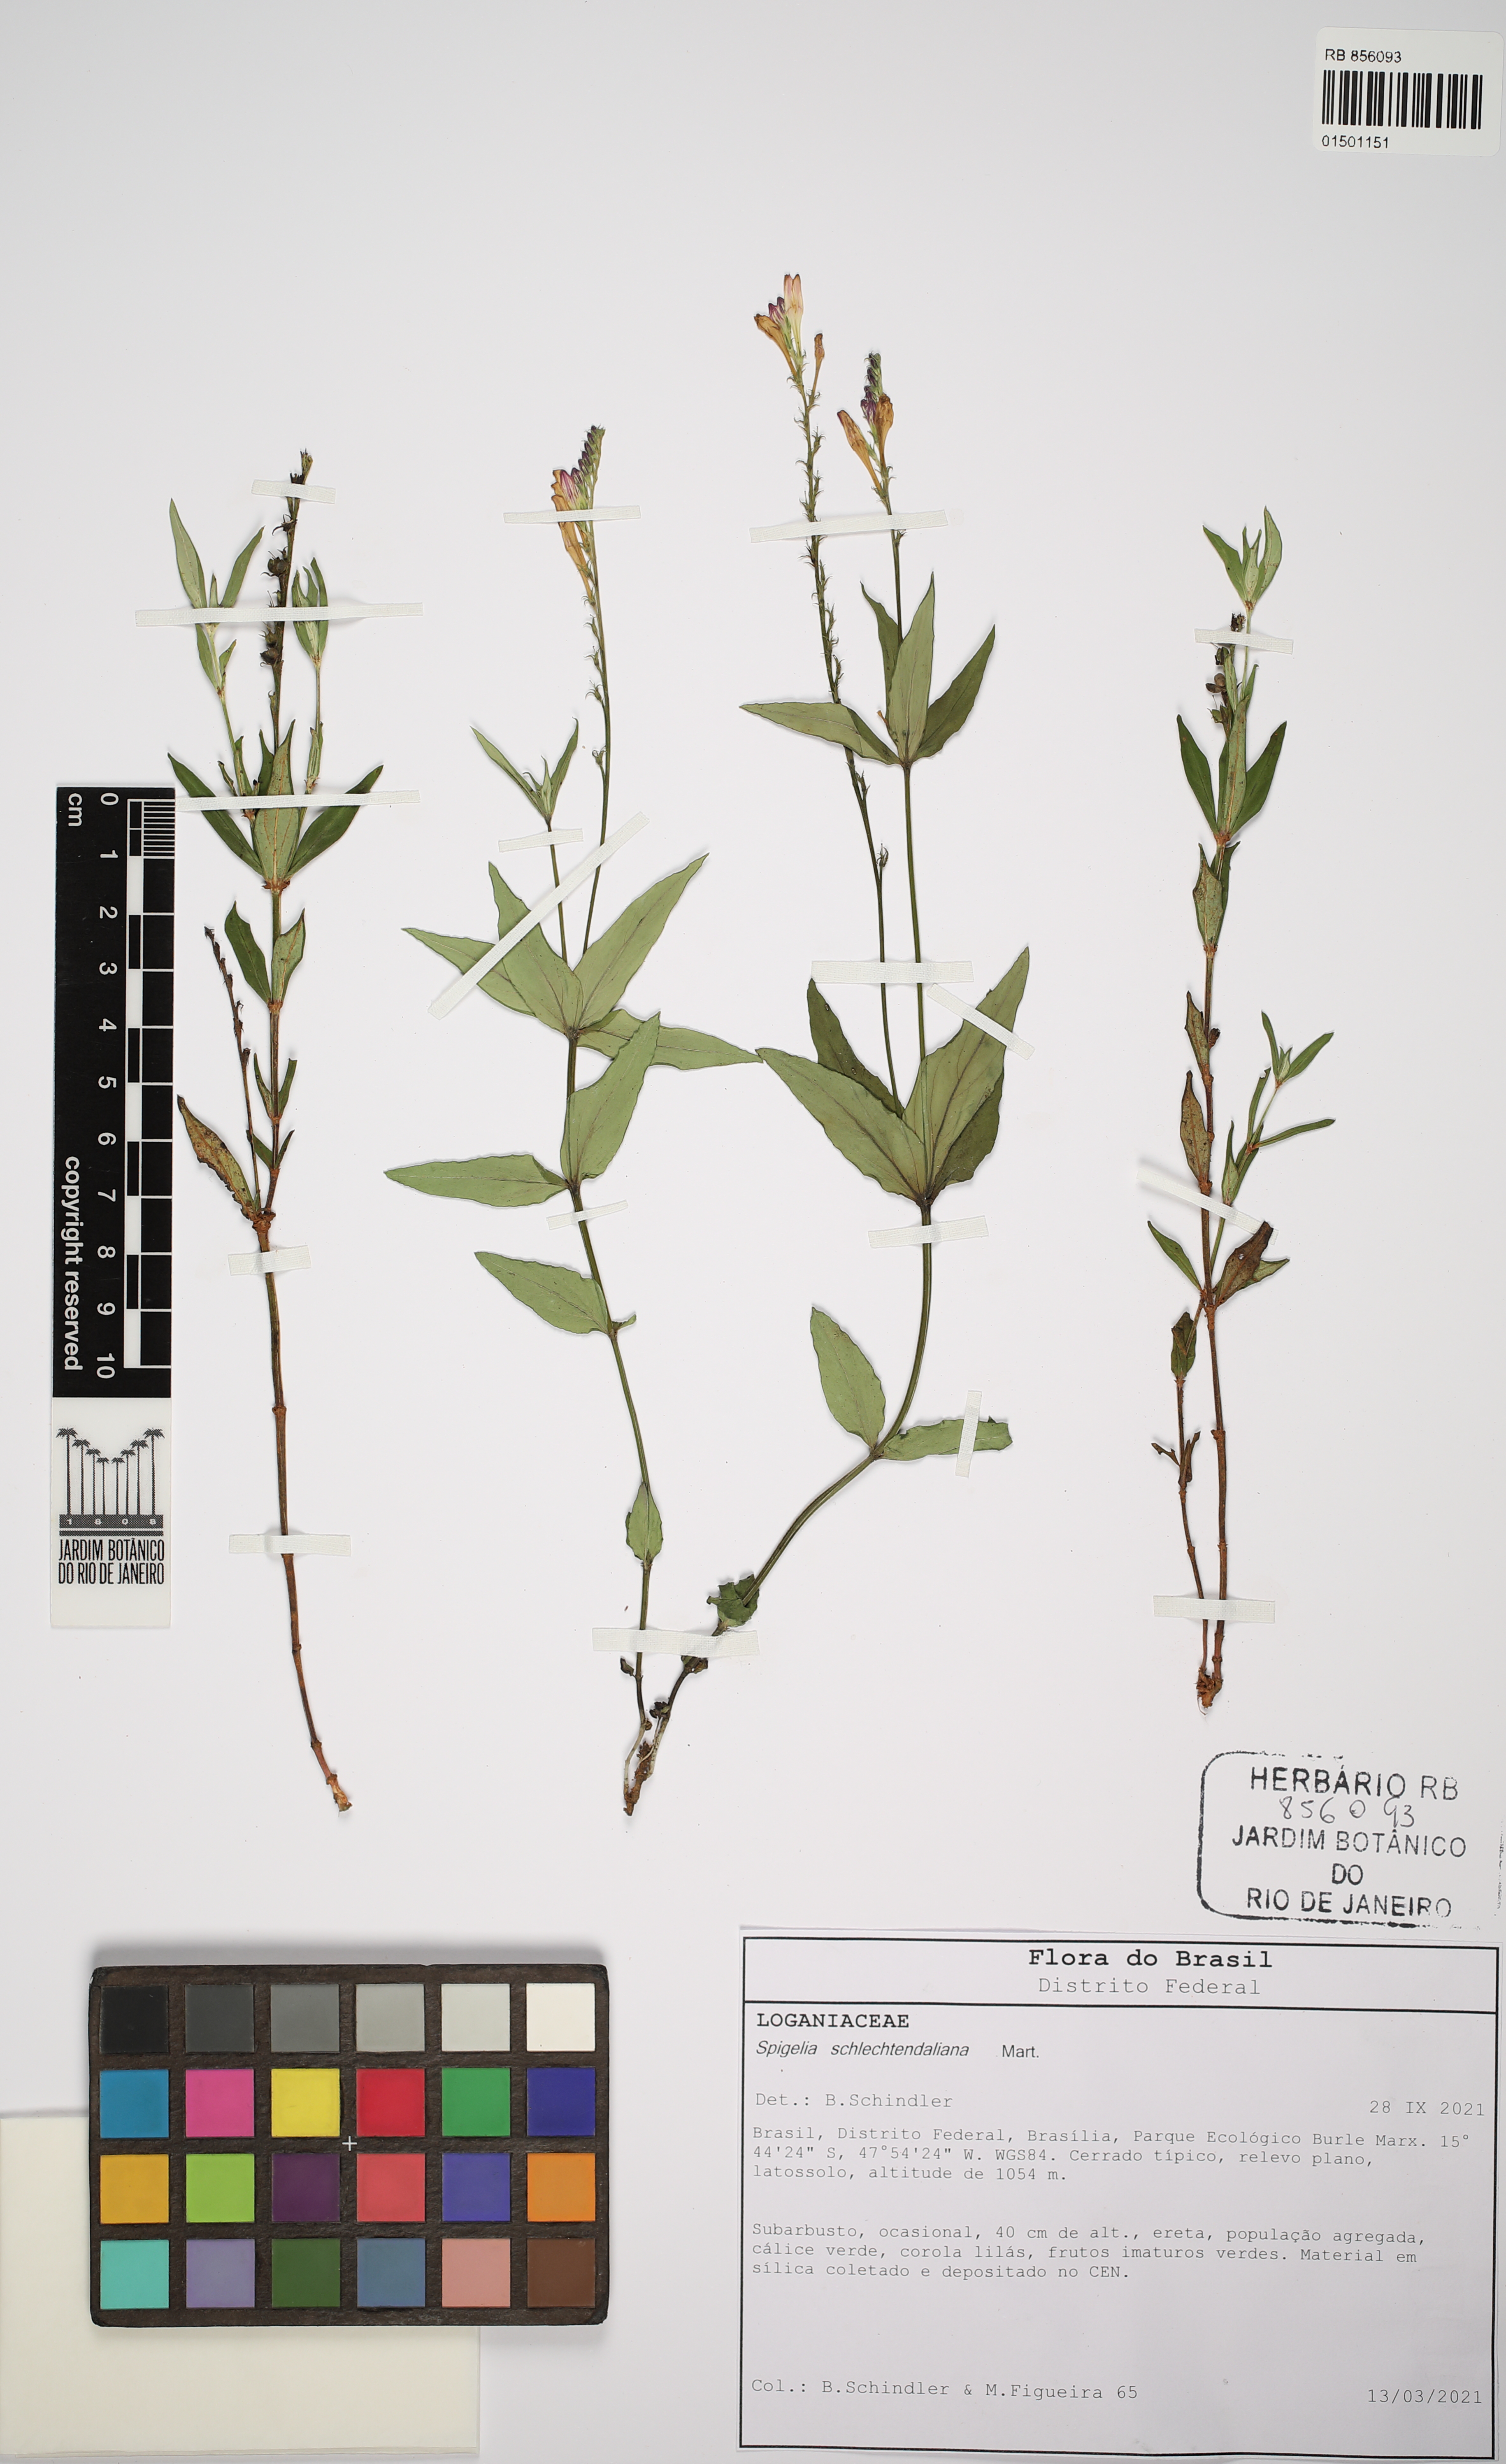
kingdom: Plantae
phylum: Tracheophyta
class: Magnoliopsida
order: Gentianales
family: Loganiaceae
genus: Spigelia
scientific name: Spigelia schlechtendaliana
